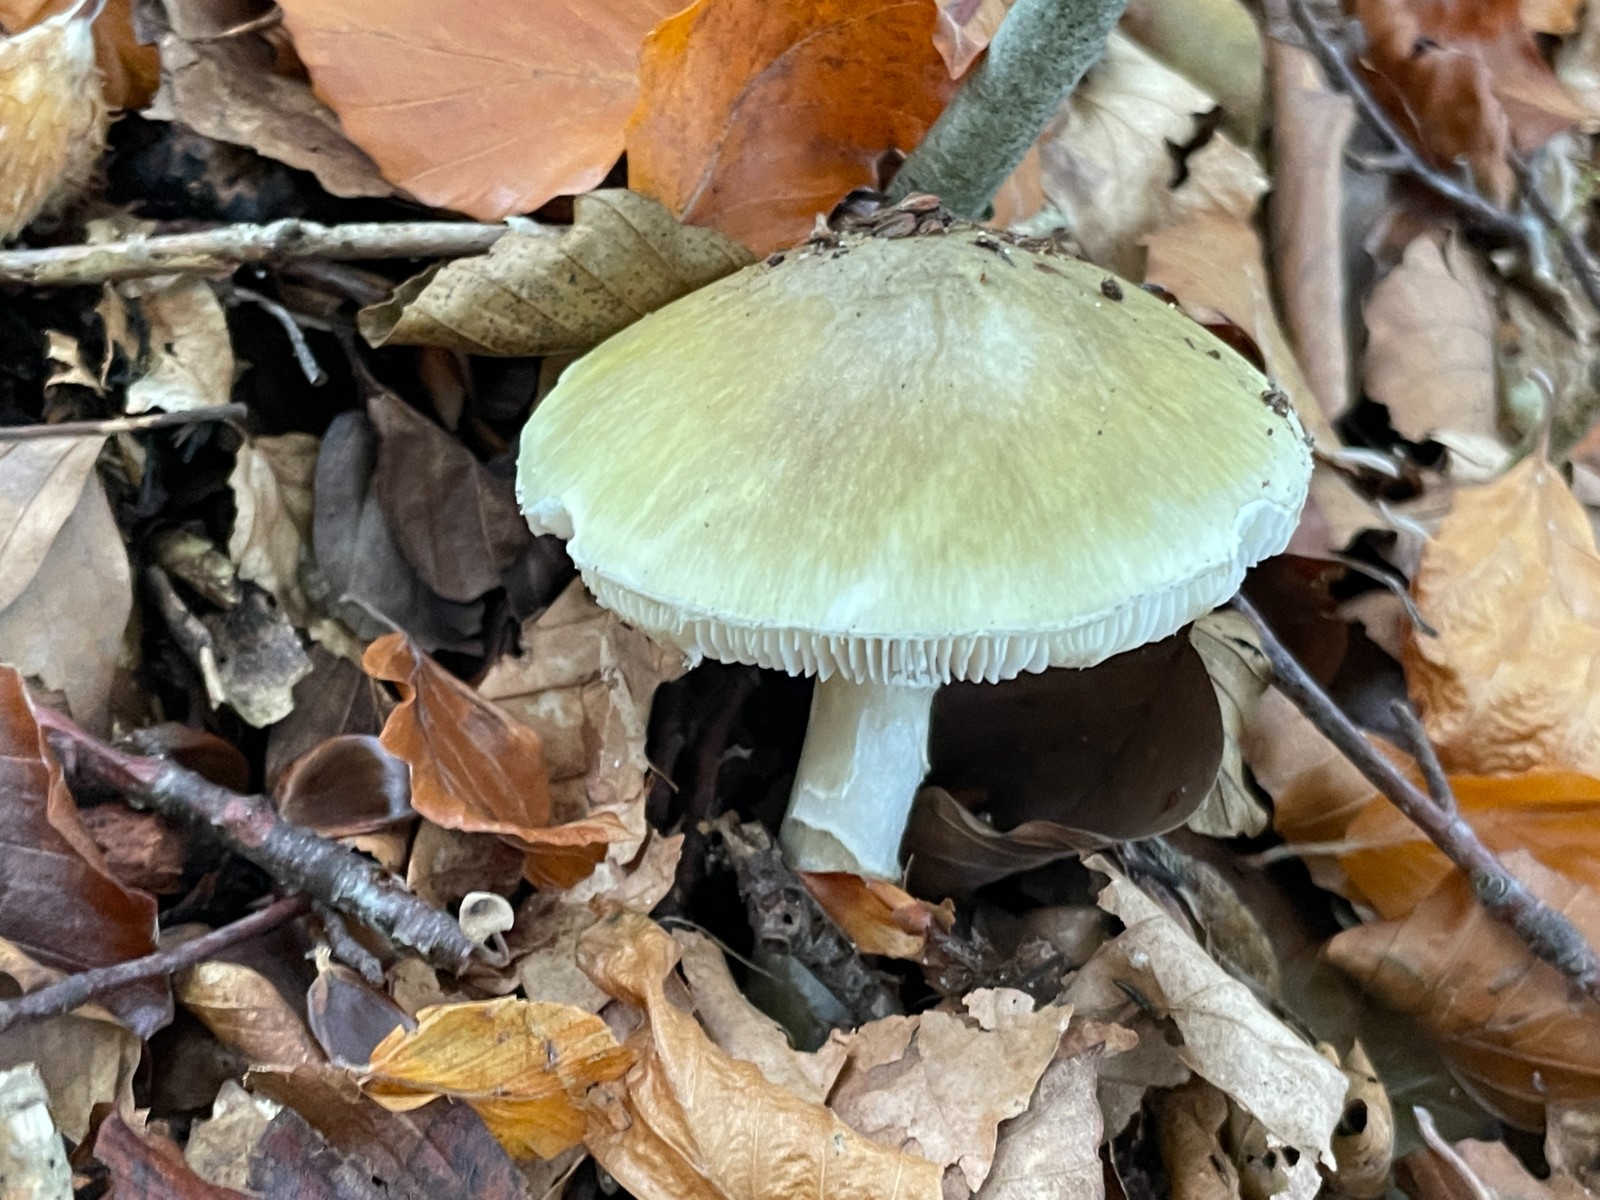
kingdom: Fungi
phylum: Basidiomycota
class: Agaricomycetes
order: Agaricales
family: Amanitaceae
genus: Amanita
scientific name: Amanita phalloides
